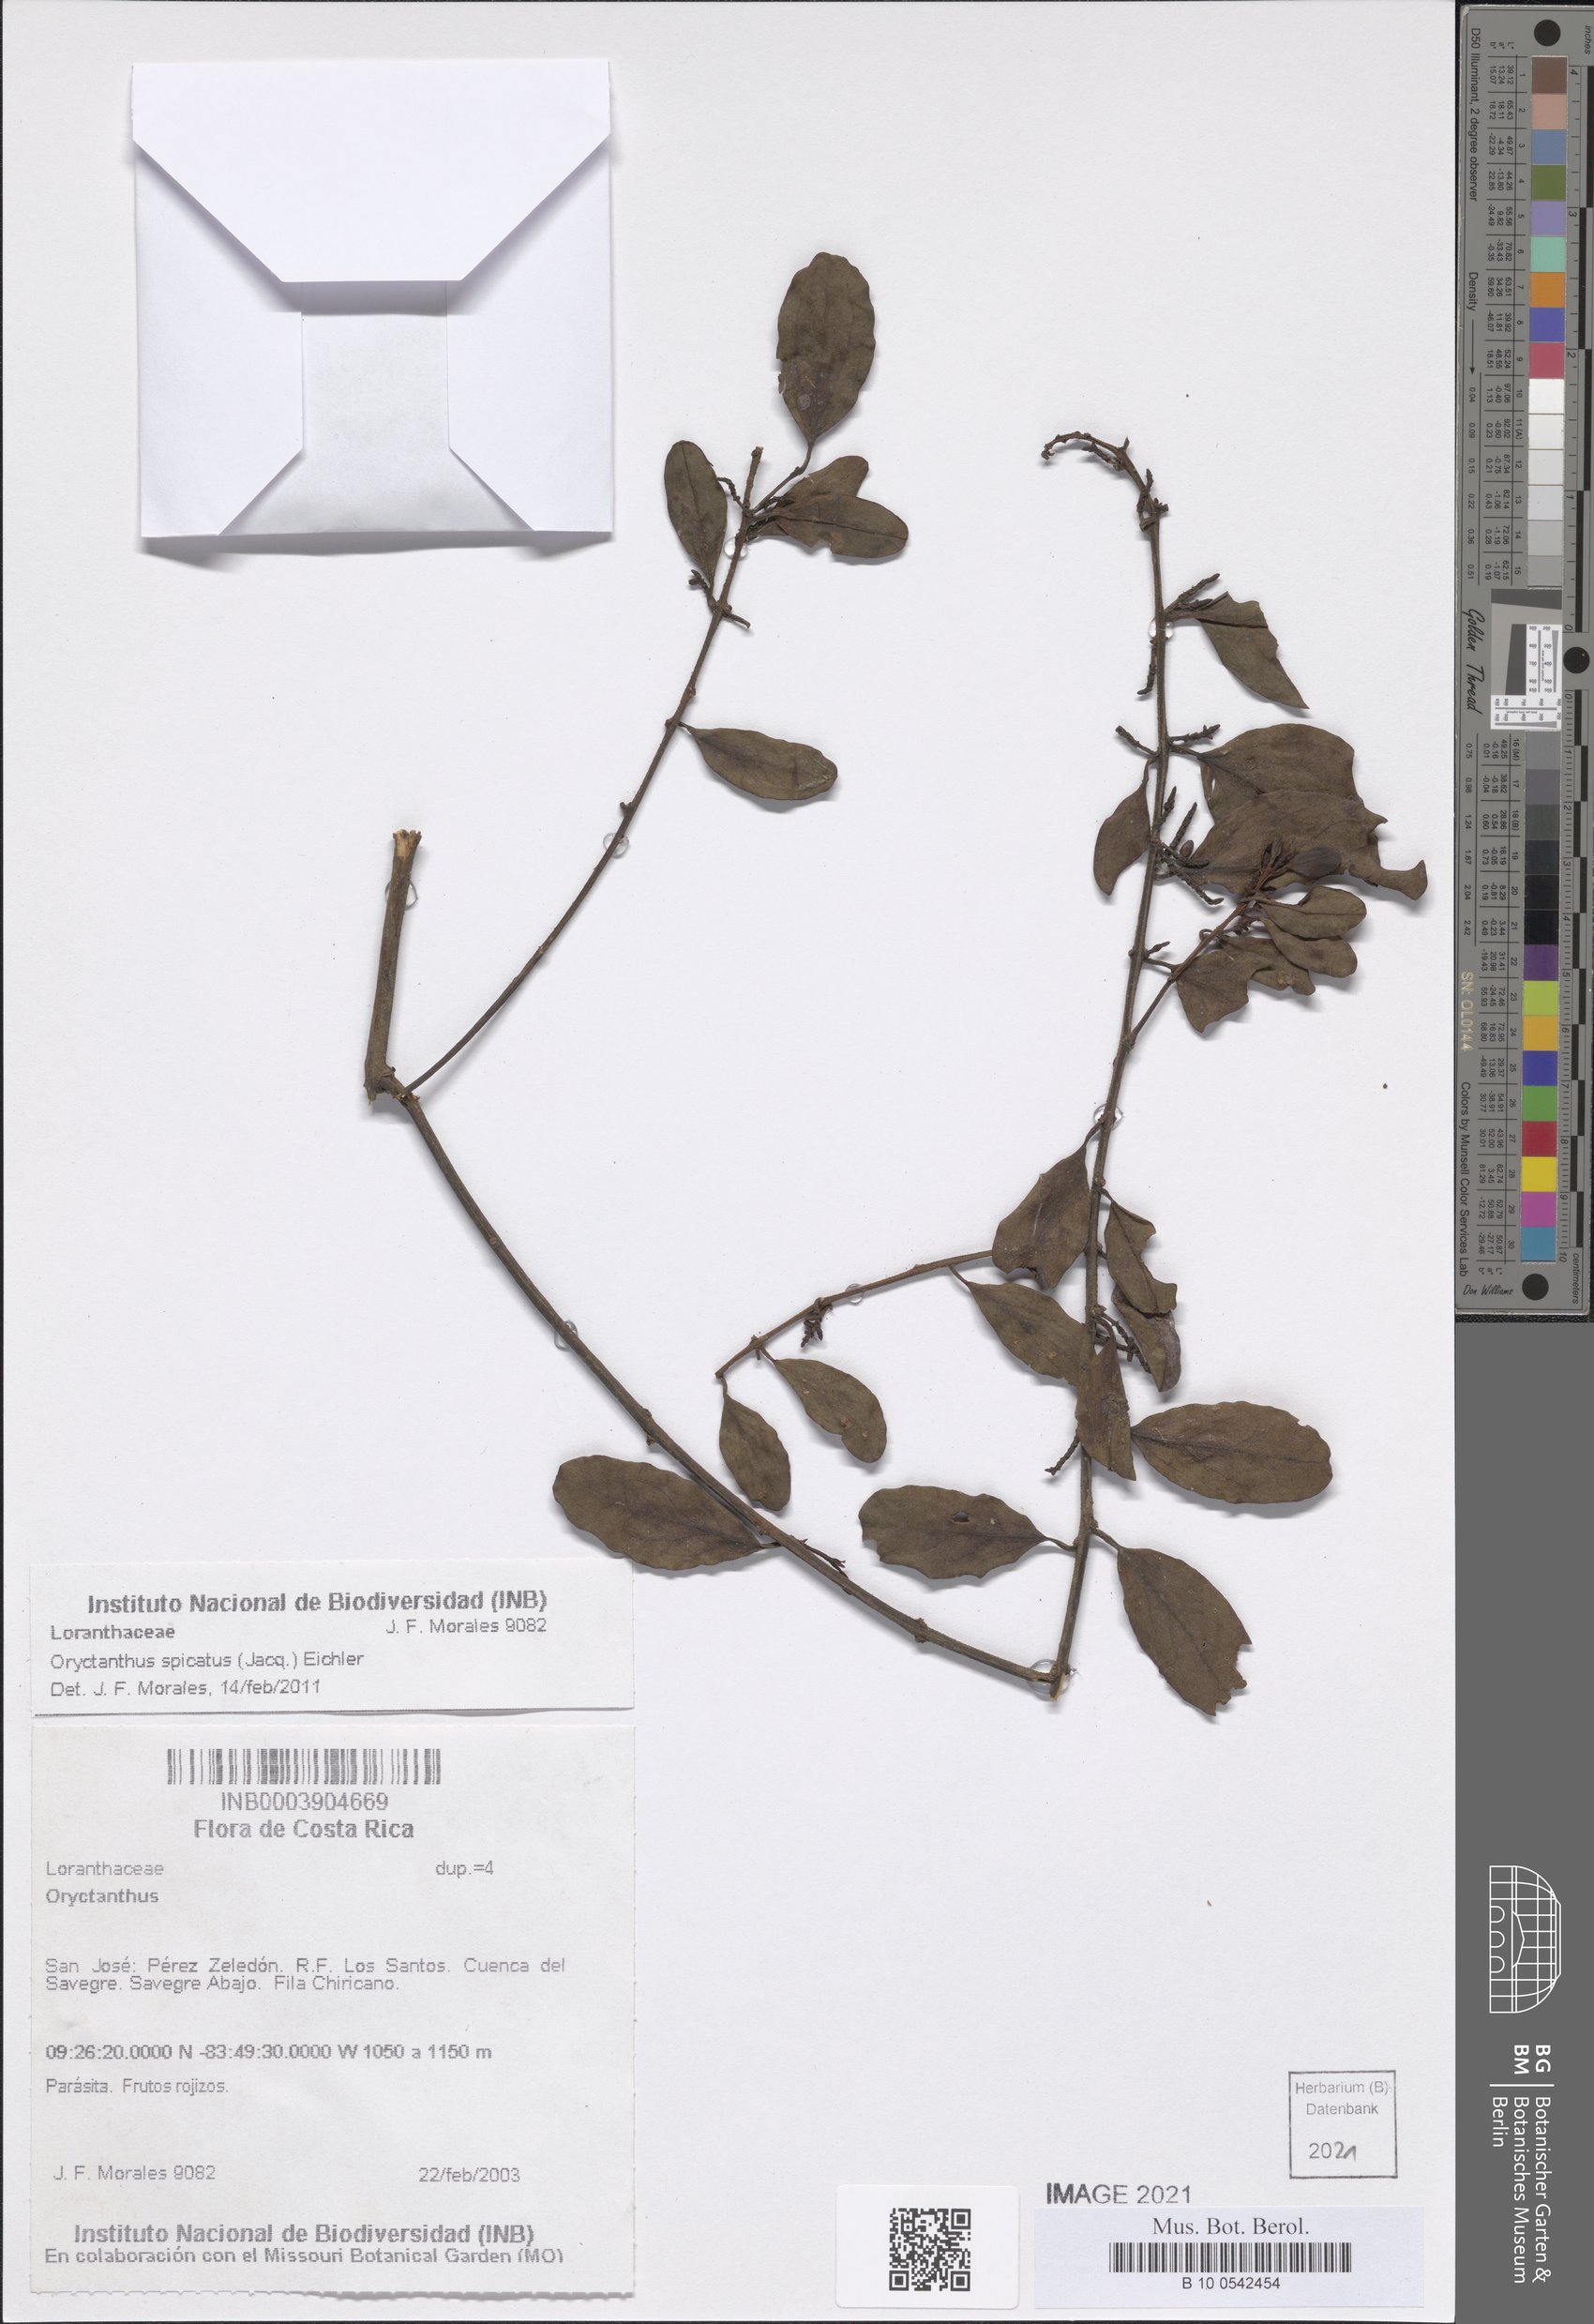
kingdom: Plantae
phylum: Tracheophyta
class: Magnoliopsida
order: Santalales
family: Loranthaceae
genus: Oryctanthus
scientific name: Oryctanthus spicatus
